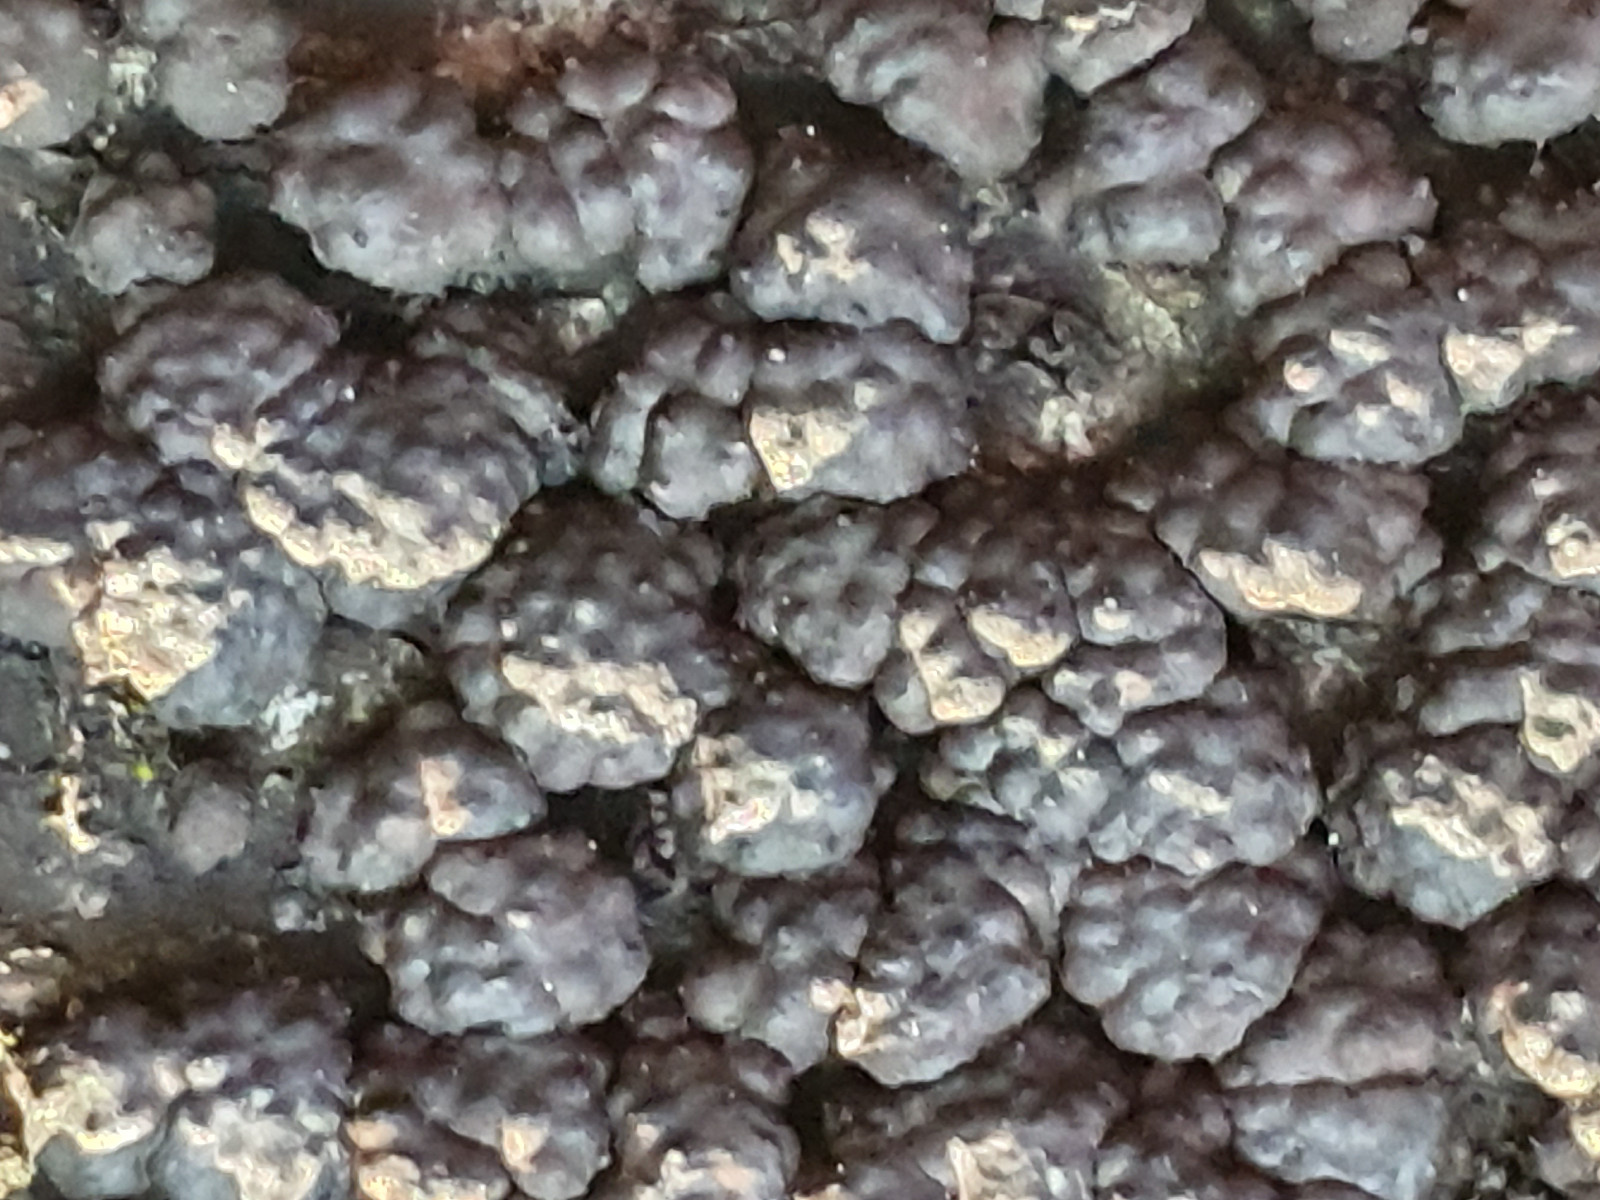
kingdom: Fungi
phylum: Ascomycota
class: Sordariomycetes
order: Xylariales
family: Hypoxylaceae
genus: Jackrogersella
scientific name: Jackrogersella cohaerens
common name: sammenflydende kulbær
